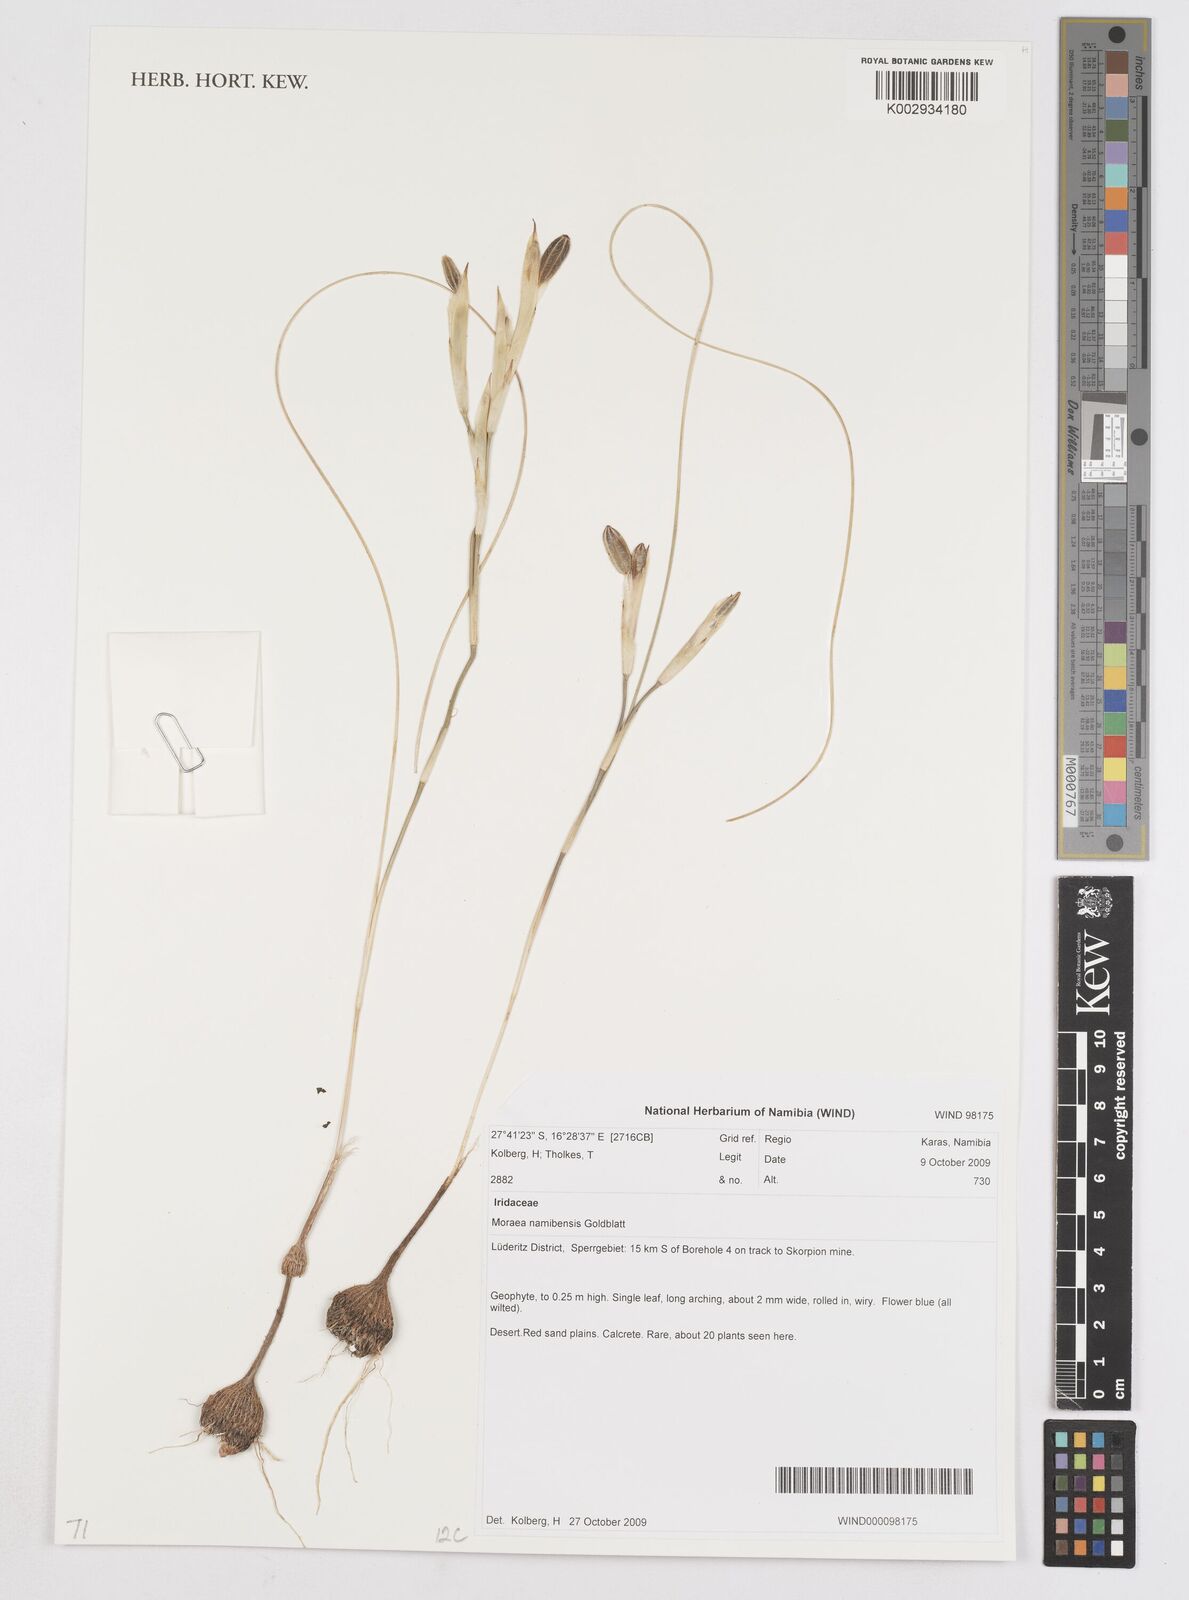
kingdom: Plantae
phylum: Tracheophyta
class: Liliopsida
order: Asparagales
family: Iridaceae
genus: Moraea
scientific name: Moraea namibensis
